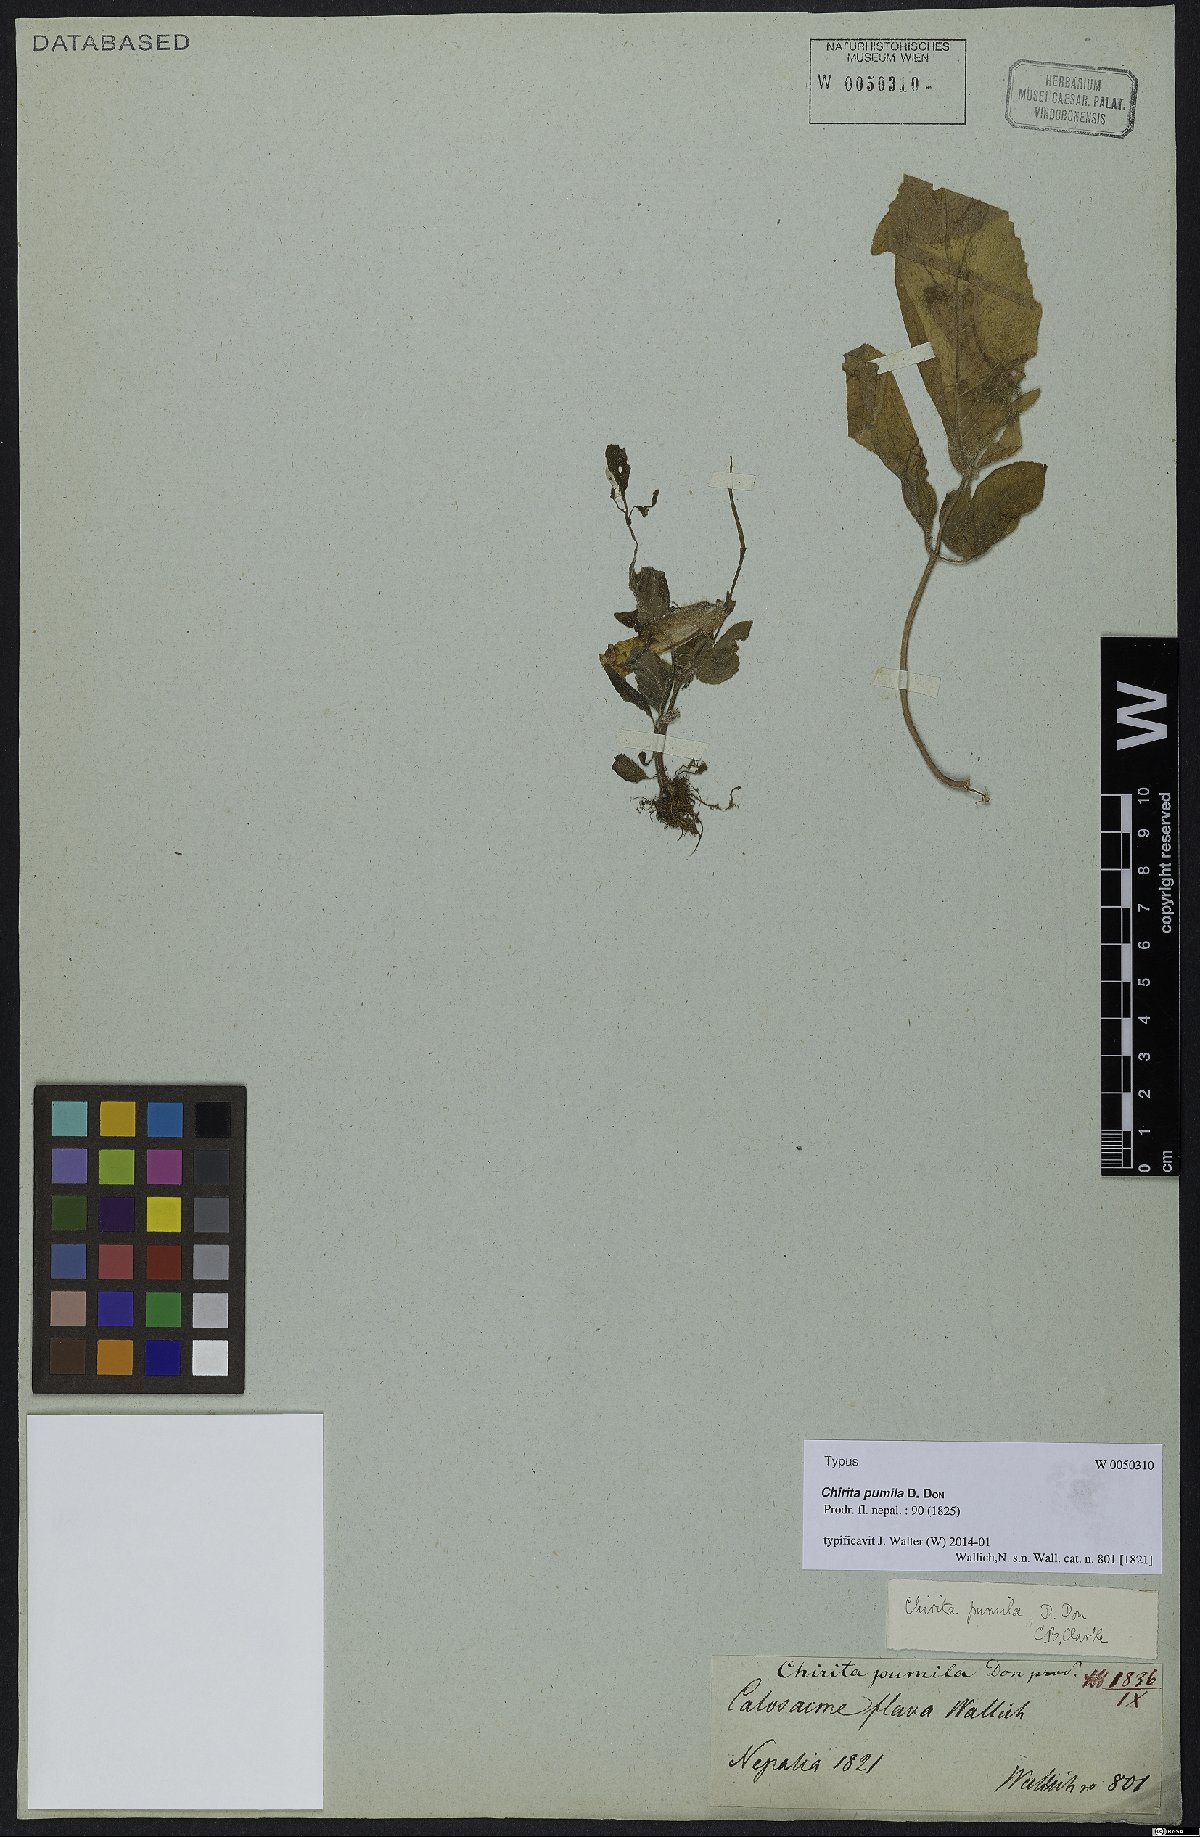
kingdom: Plantae
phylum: Tracheophyta
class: Magnoliopsida
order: Lamiales
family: Gesneriaceae
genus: Henckelia
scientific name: Henckelia pumila
